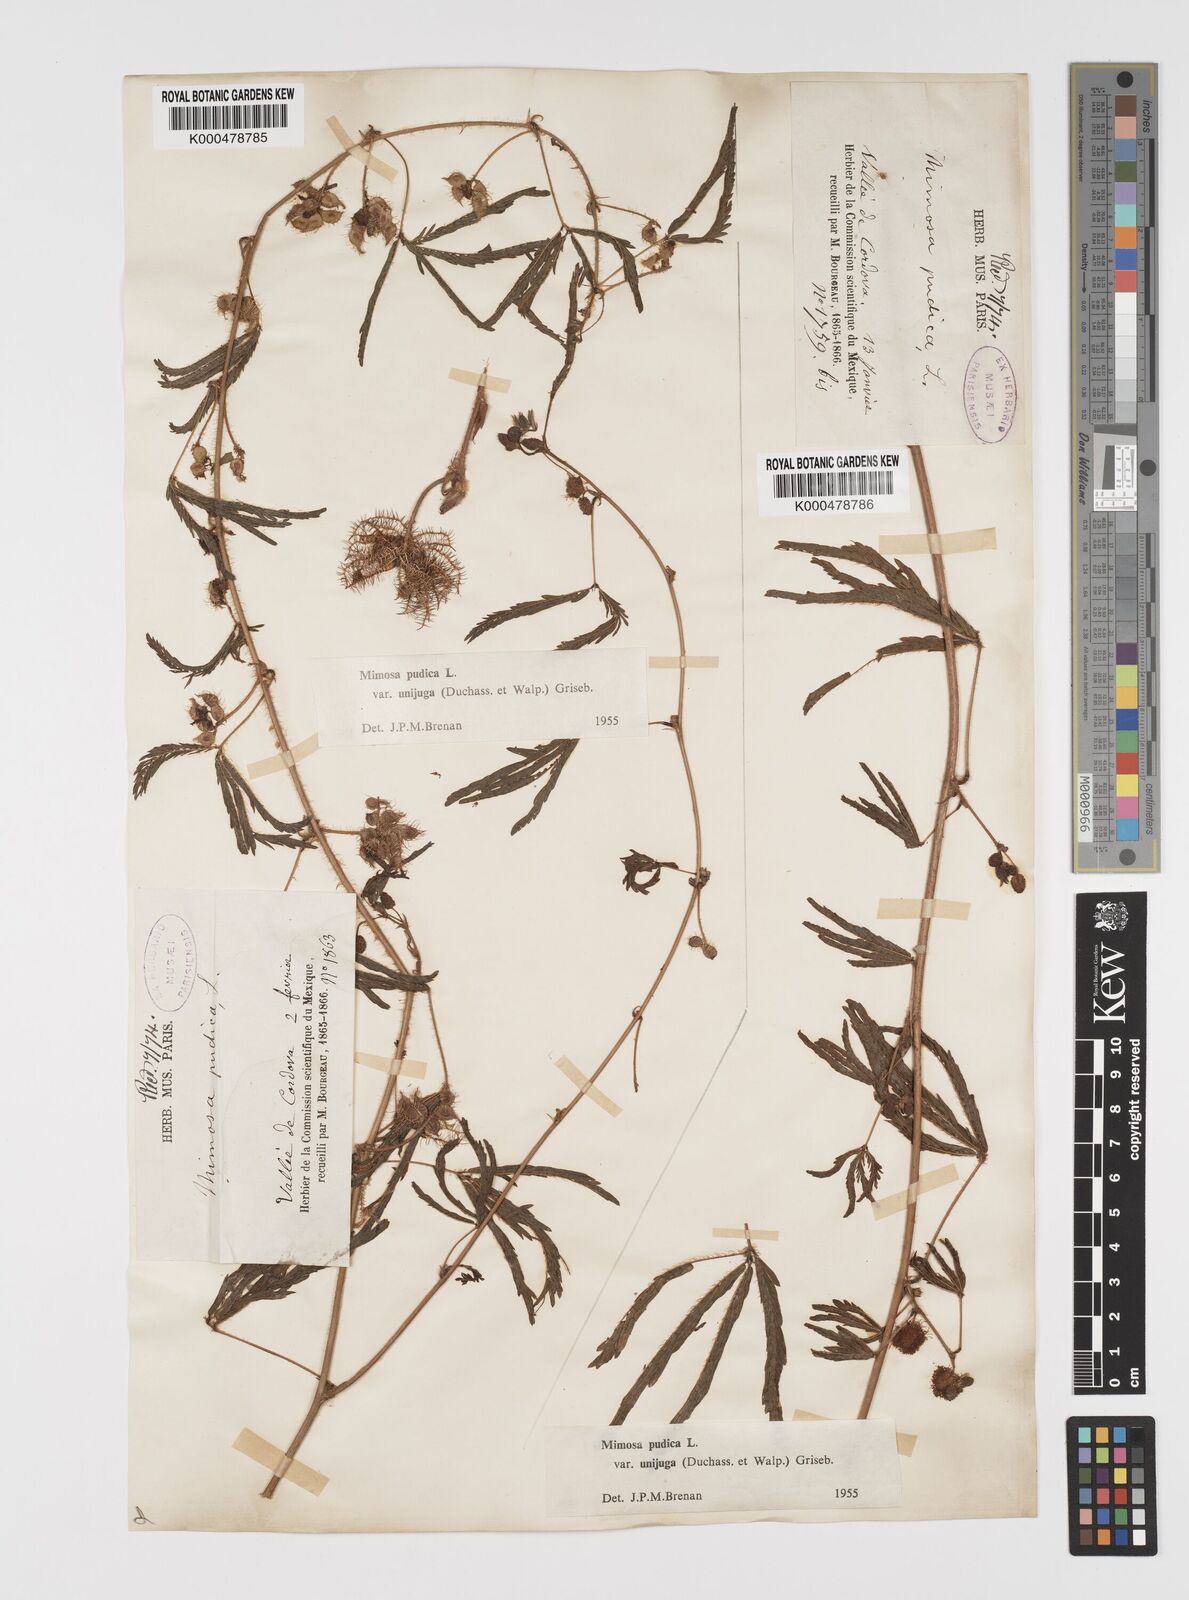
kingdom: Plantae
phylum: Tracheophyta
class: Magnoliopsida
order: Fabales
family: Fabaceae
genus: Mimosa
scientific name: Mimosa pudica
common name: Sensitive plant
